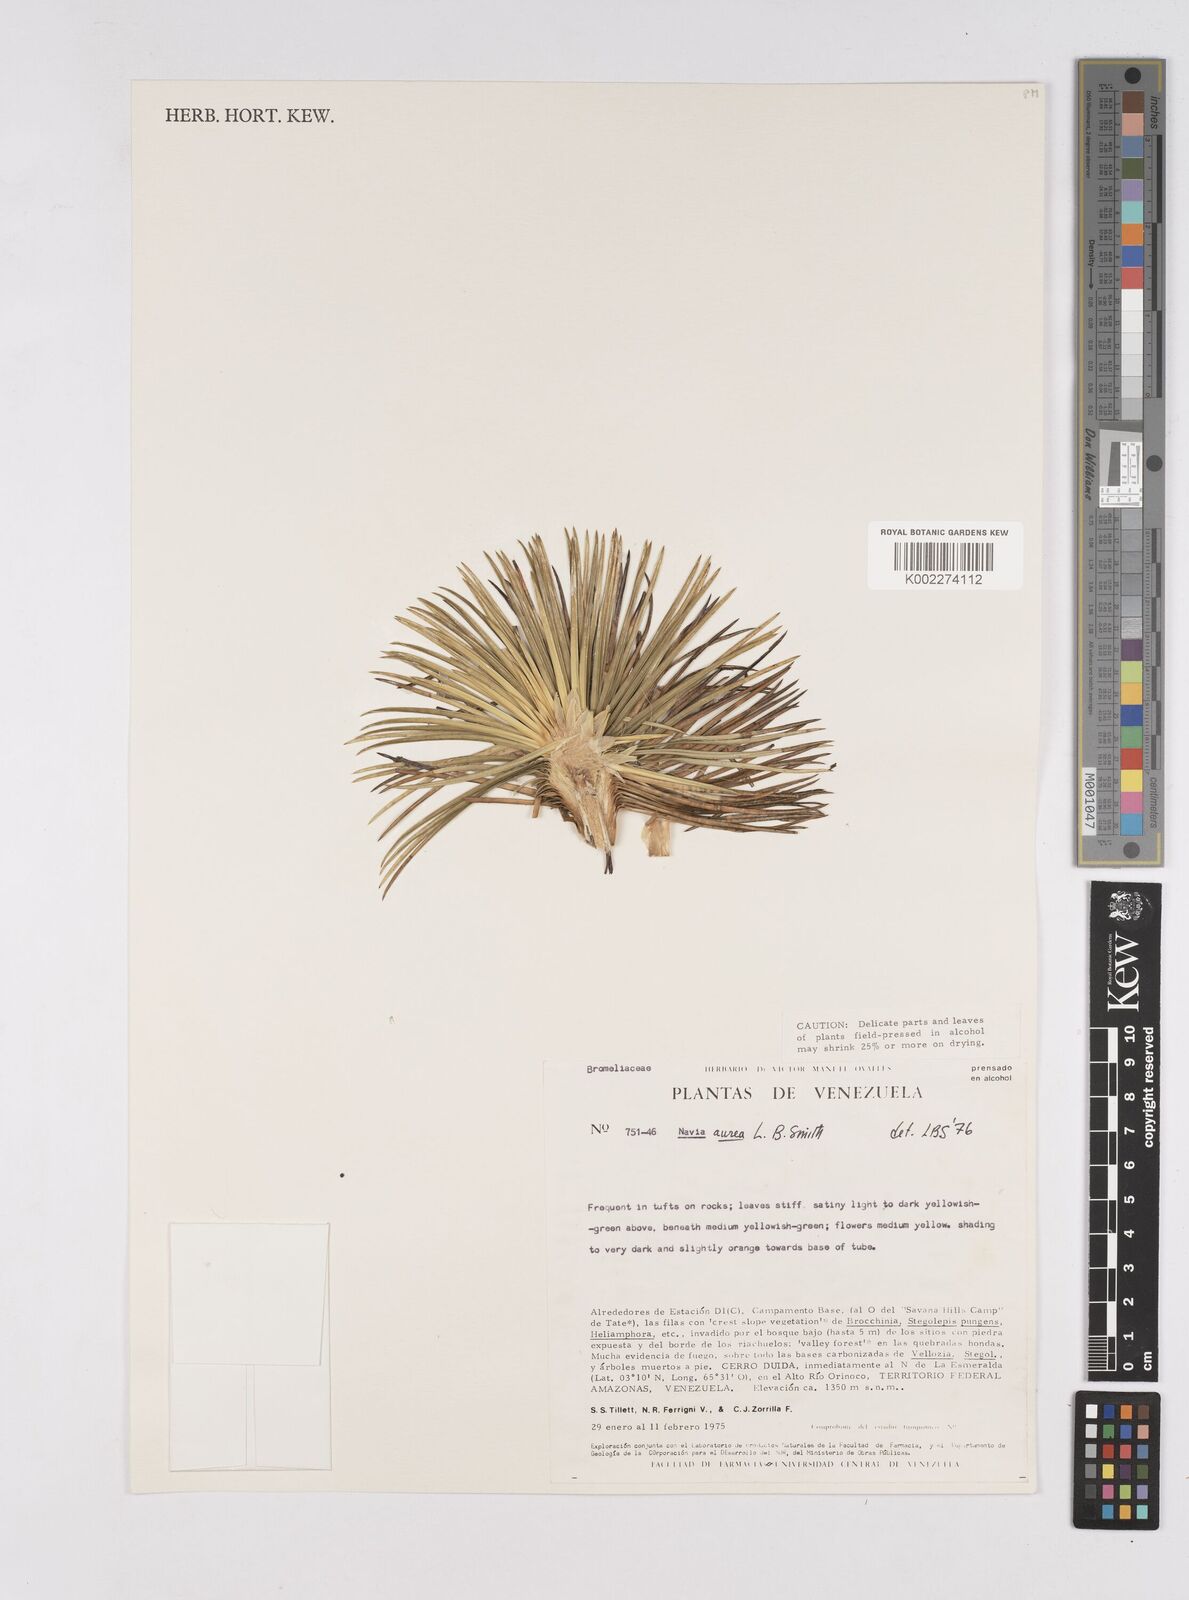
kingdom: Plantae
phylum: Tracheophyta
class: Liliopsida
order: Poales
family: Bromeliaceae
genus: Navia
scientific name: Navia aurea
